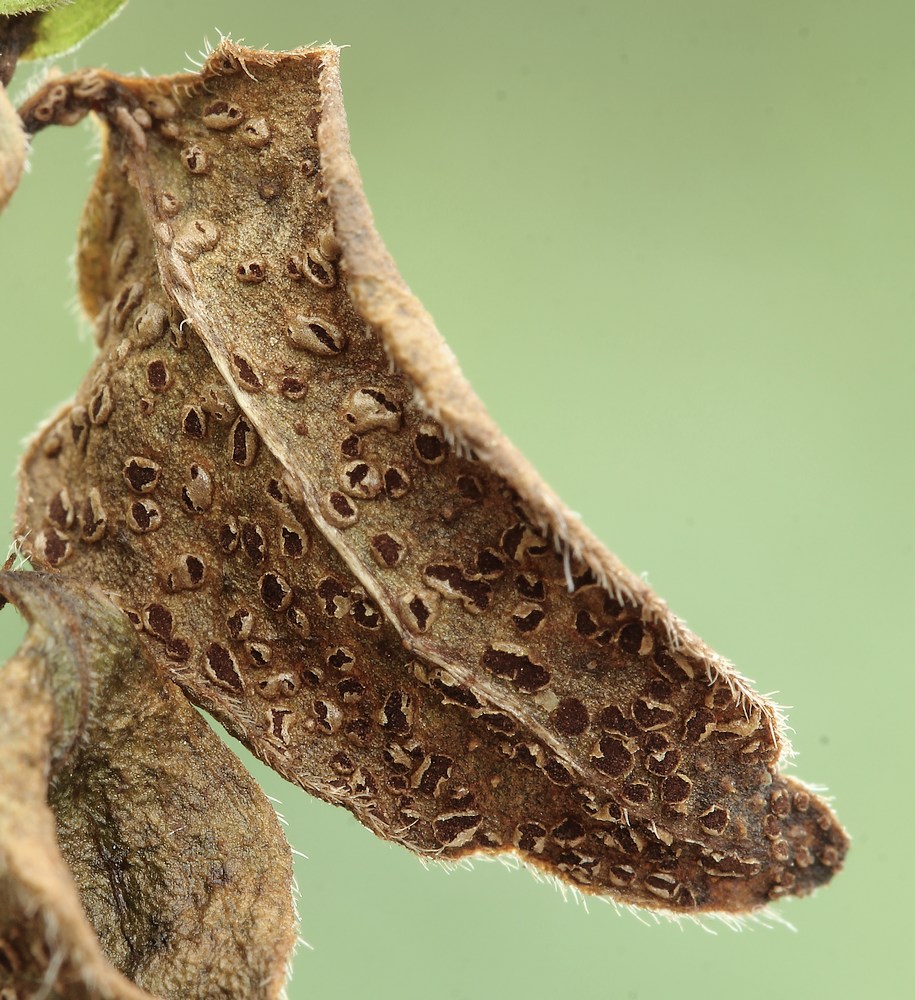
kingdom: Fungi
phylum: Basidiomycota
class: Pucciniomycetes
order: Pucciniales
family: Pucciniaceae
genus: Puccinia
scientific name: Puccinia vincae
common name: Periwinkle rust
